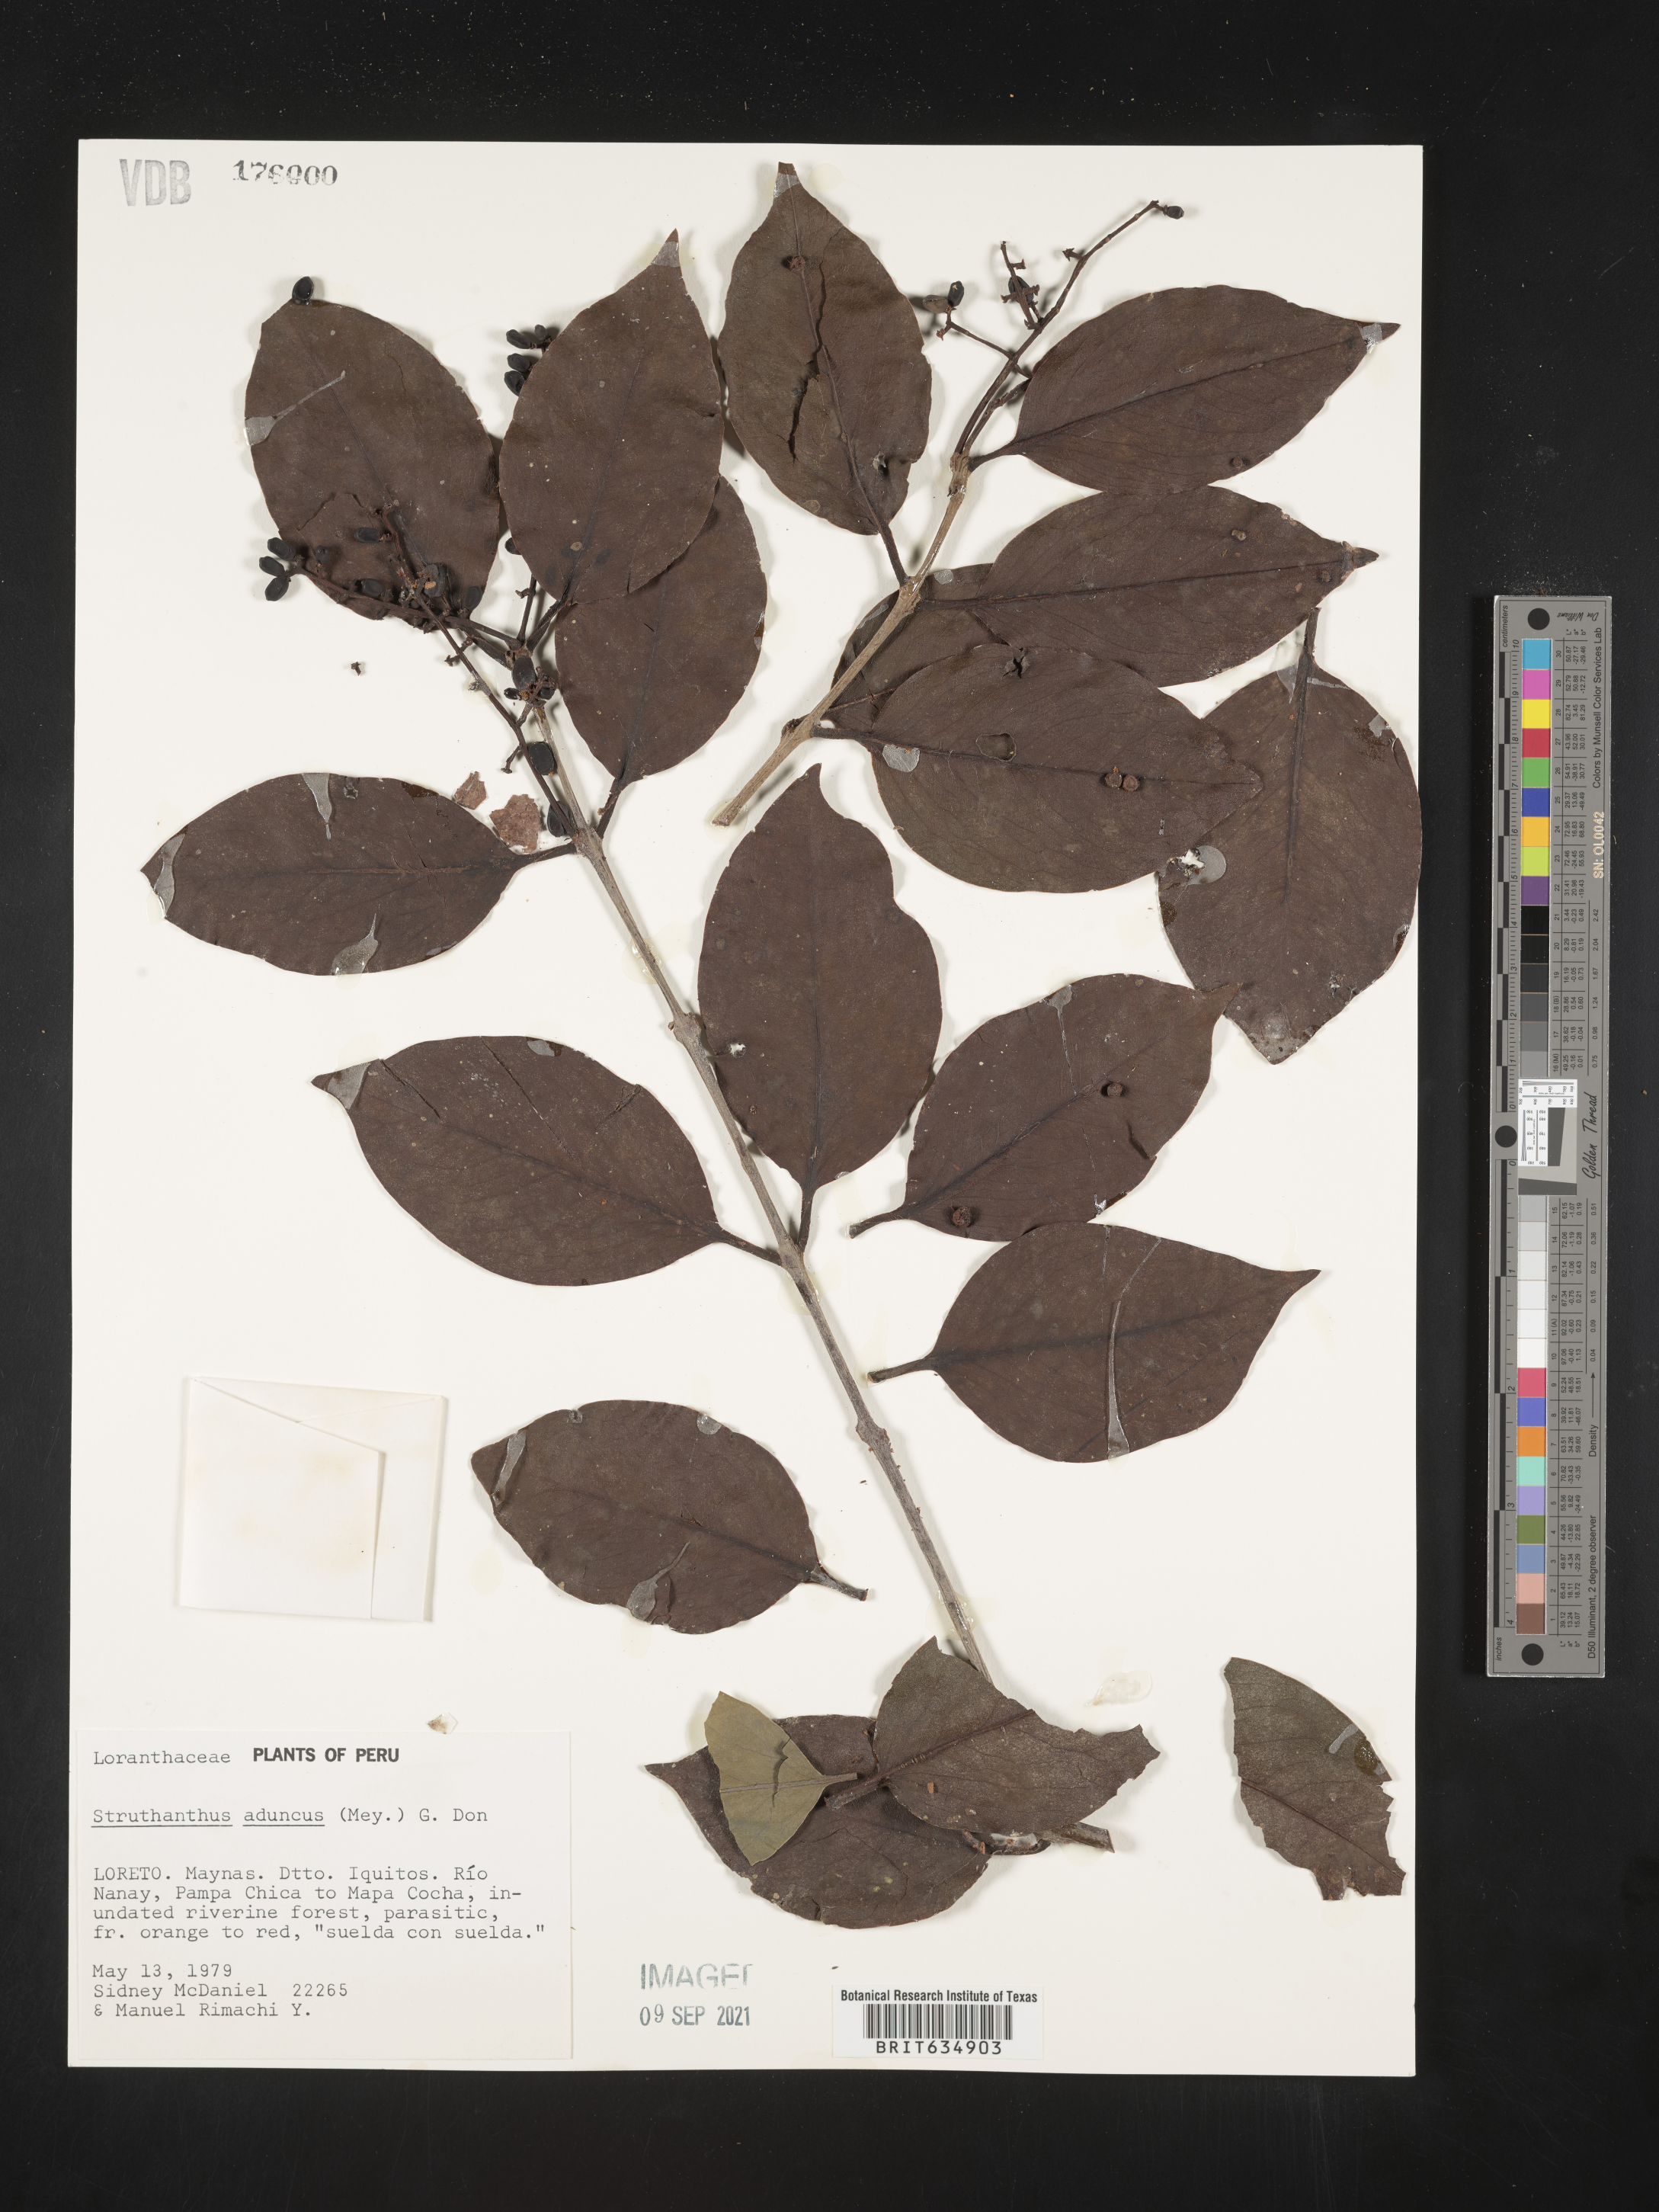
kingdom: Plantae
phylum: Tracheophyta
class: Magnoliopsida
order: Santalales
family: Loranthaceae
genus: Struthanthus
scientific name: Struthanthus
